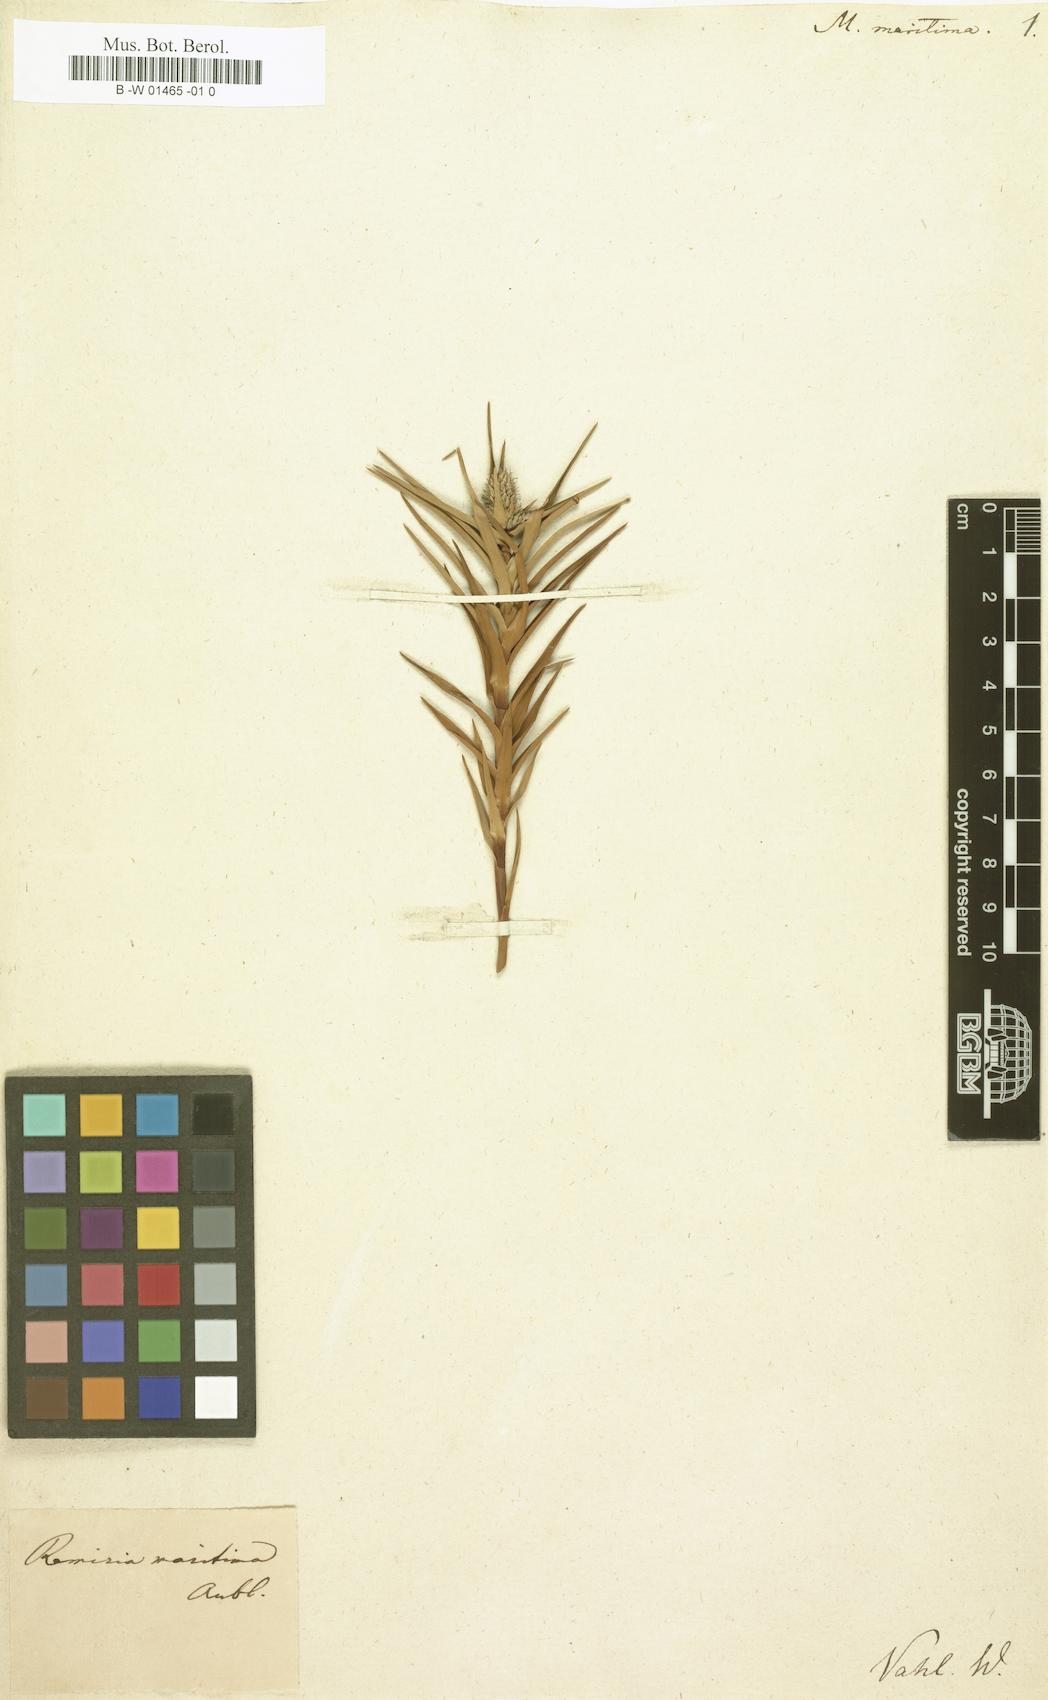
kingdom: Plantae
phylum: Tracheophyta
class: Liliopsida
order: Poales
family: Cyperaceae
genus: Cyperus
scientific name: Cyperus pedunculatus
